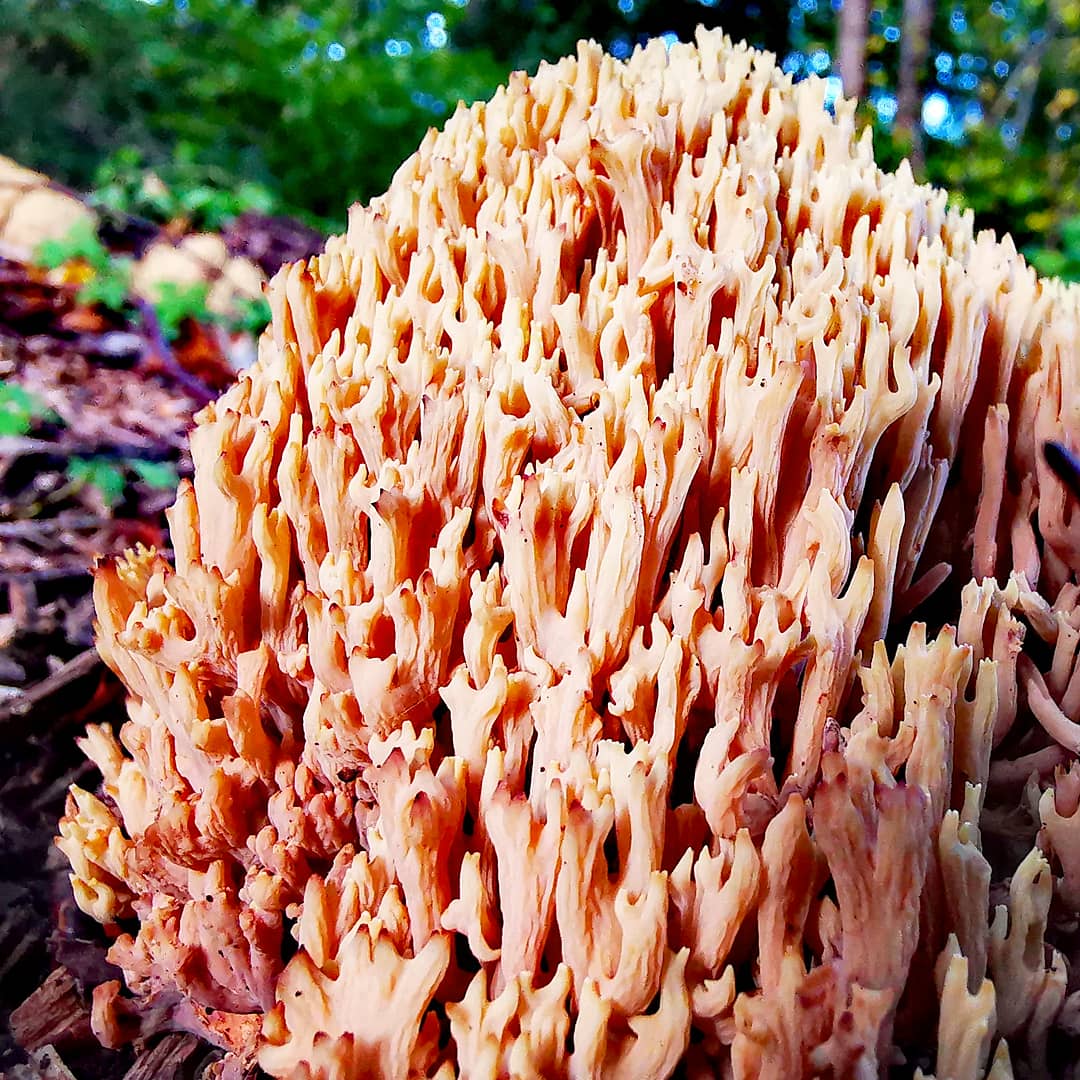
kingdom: Fungi
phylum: Basidiomycota
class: Agaricomycetes
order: Gomphales
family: Gomphaceae
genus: Ramaria
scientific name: Ramaria stricta
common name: rank koralsvamp
